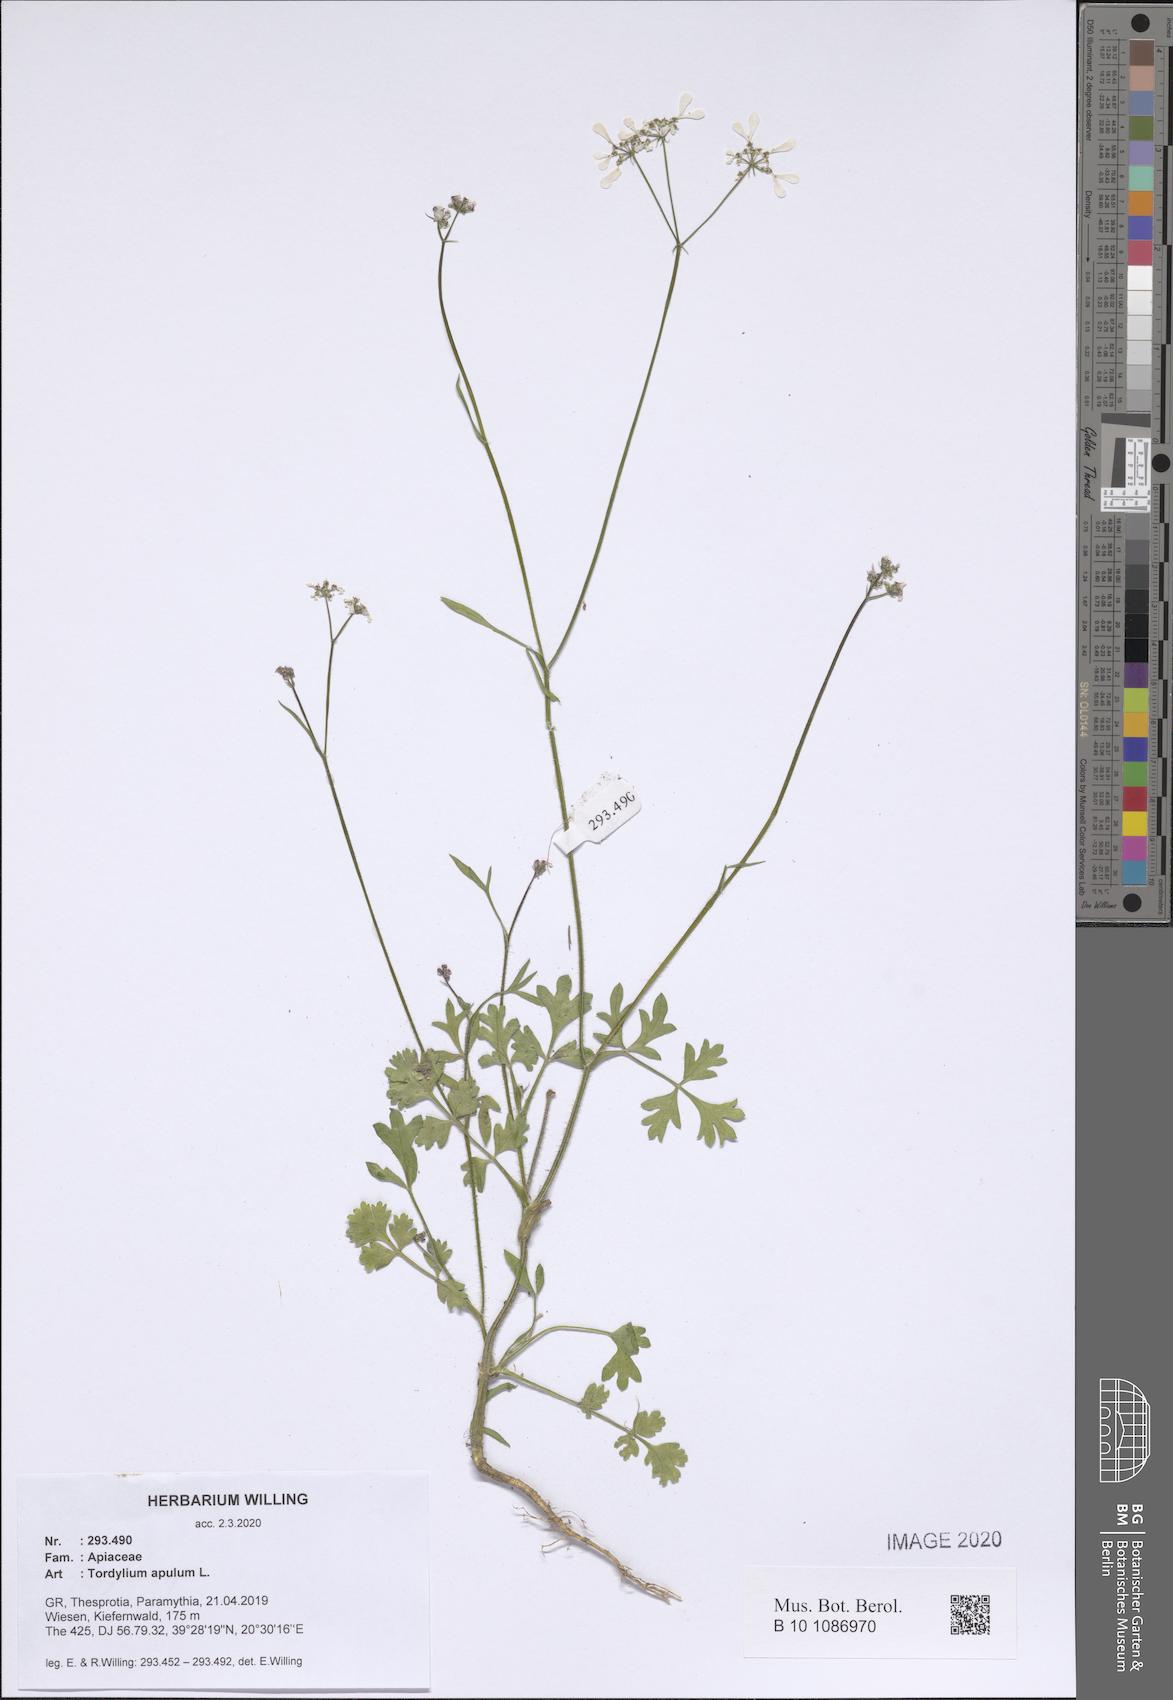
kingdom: Plantae
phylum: Tracheophyta
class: Magnoliopsida
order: Apiales
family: Apiaceae
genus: Tordylium
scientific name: Tordylium apulum
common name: Mediterranean hartwort
